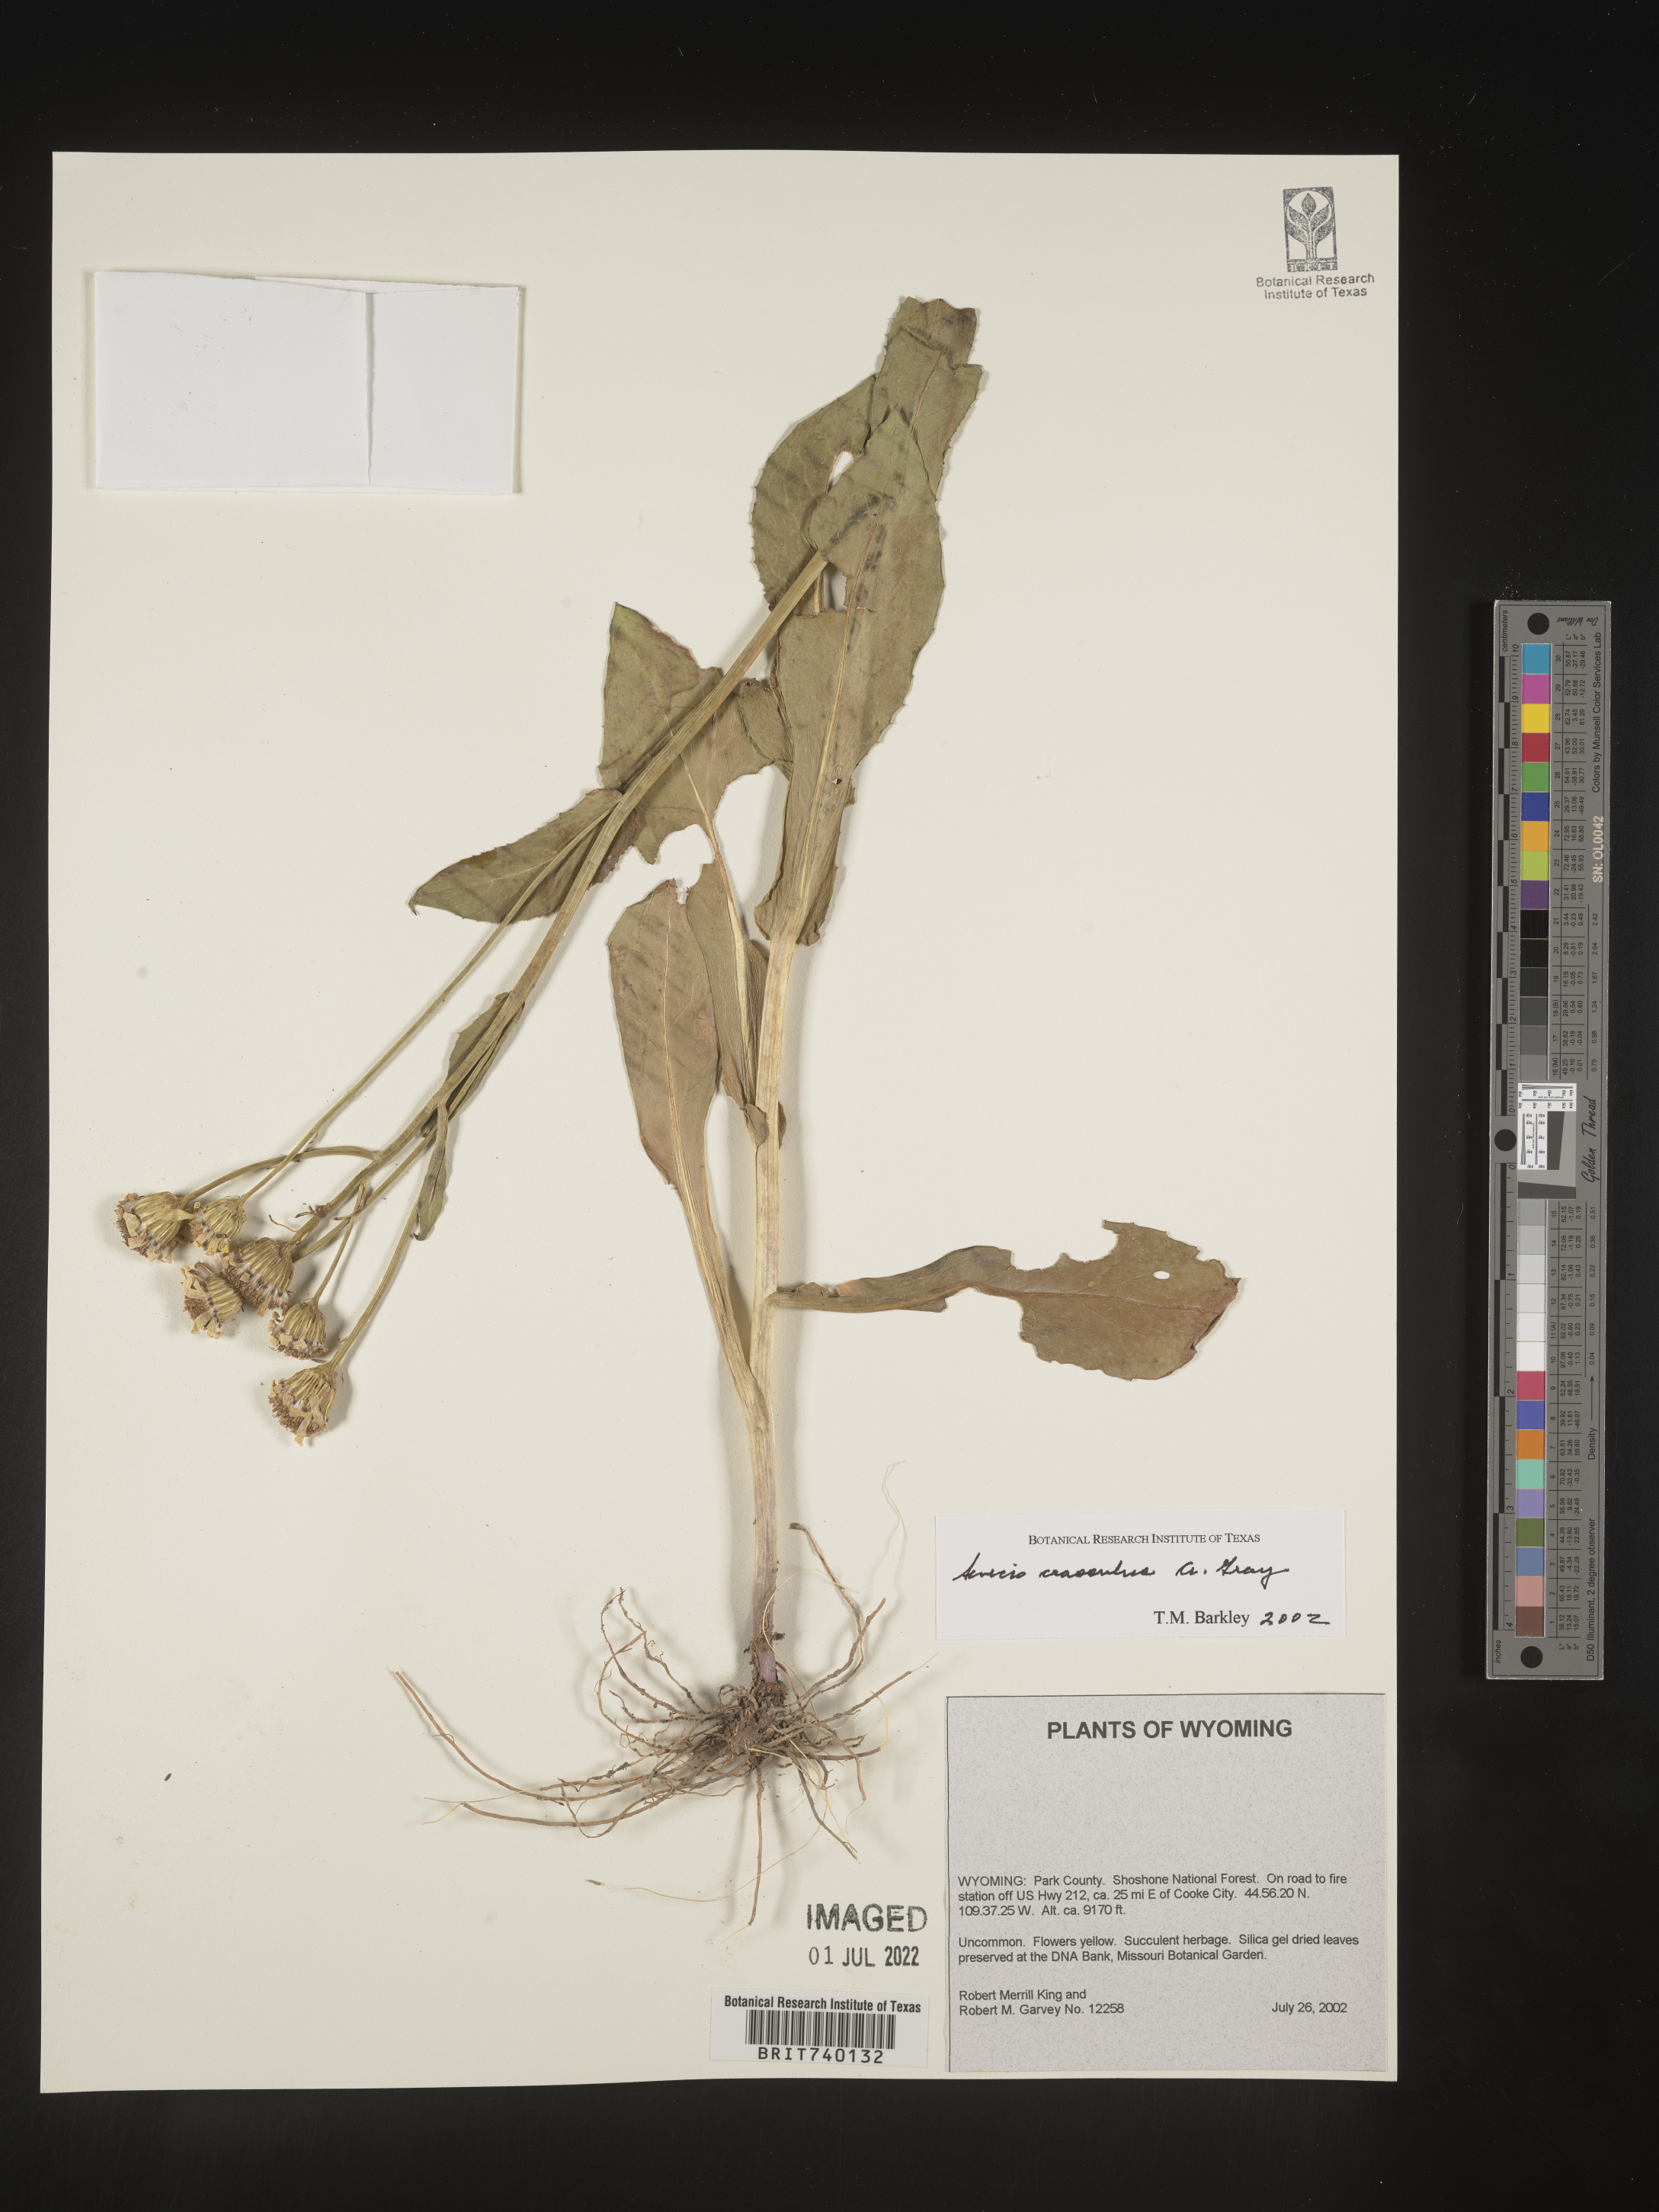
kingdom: Plantae
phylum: Tracheophyta
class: Magnoliopsida
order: Asterales
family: Asteraceae
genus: Senecio
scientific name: Senecio crassulus
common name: Mountain-meadow butterweed
